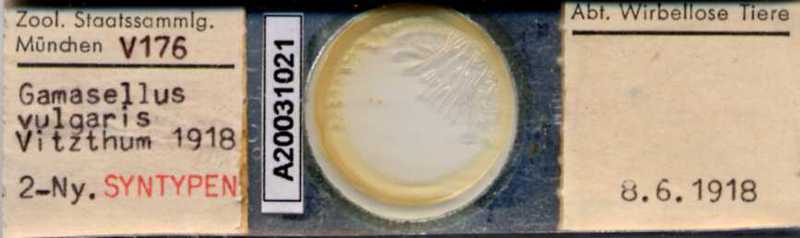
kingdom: Animalia
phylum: Arthropoda
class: Arachnida
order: Mesostigmata
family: Ologamasidae
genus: Gamasellus
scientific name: Gamasellus
